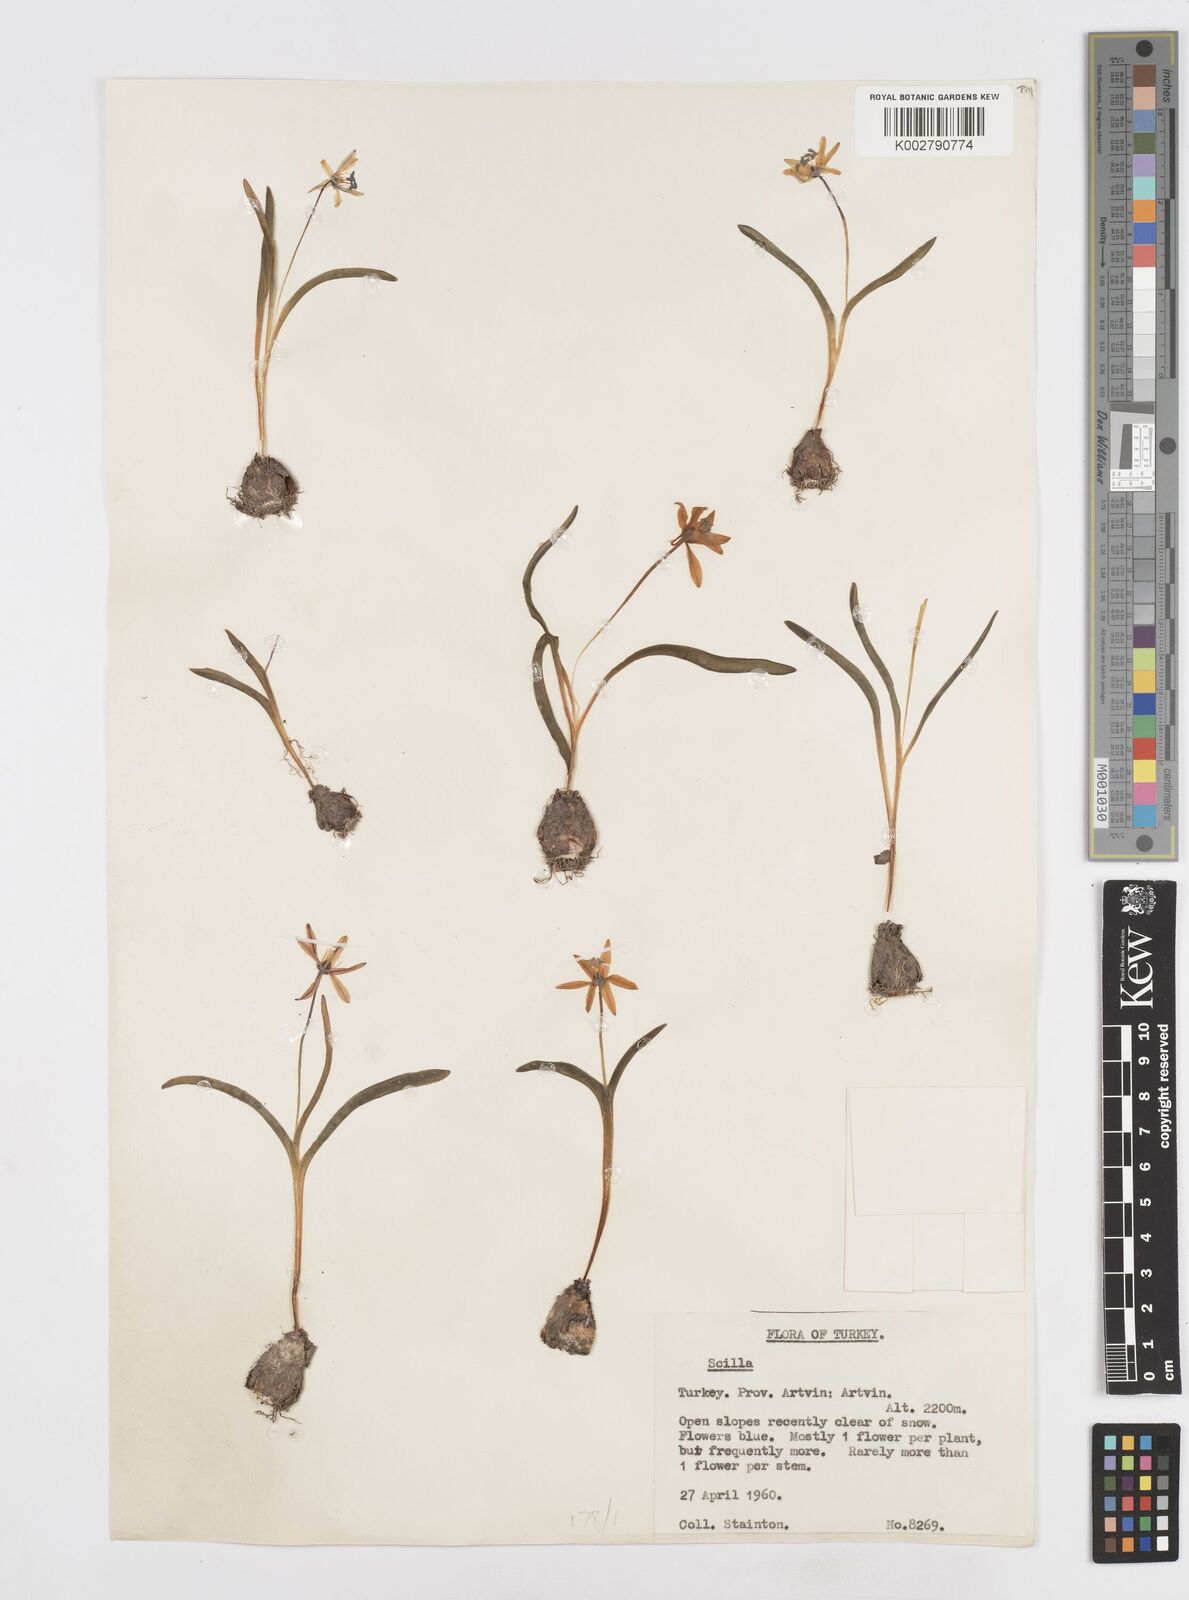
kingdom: Plantae
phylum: Tracheophyta
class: Liliopsida
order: Asparagales
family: Asparagaceae
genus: Scilla
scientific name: Scilla siberica
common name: Siberian squill
